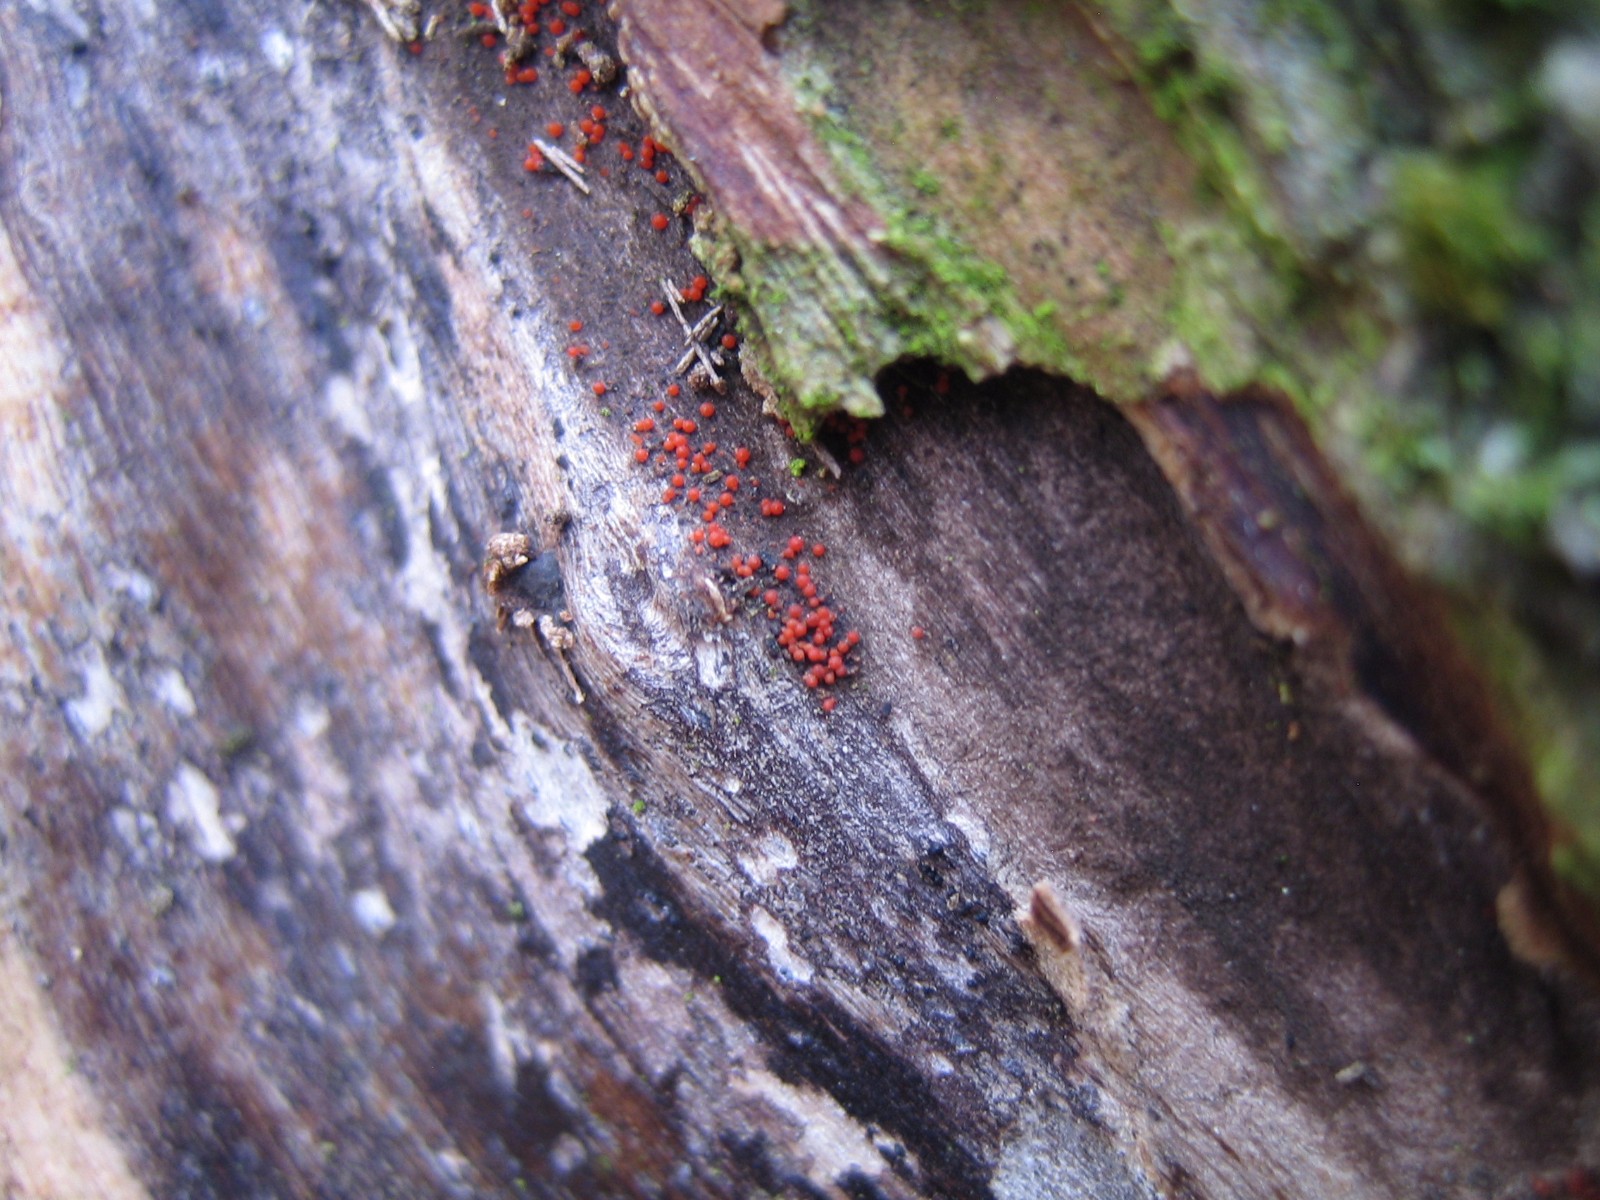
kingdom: Fungi
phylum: Ascomycota
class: Sordariomycetes
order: Hypocreales
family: Nectriaceae
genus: Hydropisphaera
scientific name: Hydropisphaera peziza
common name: skålformet gyldenkerne
